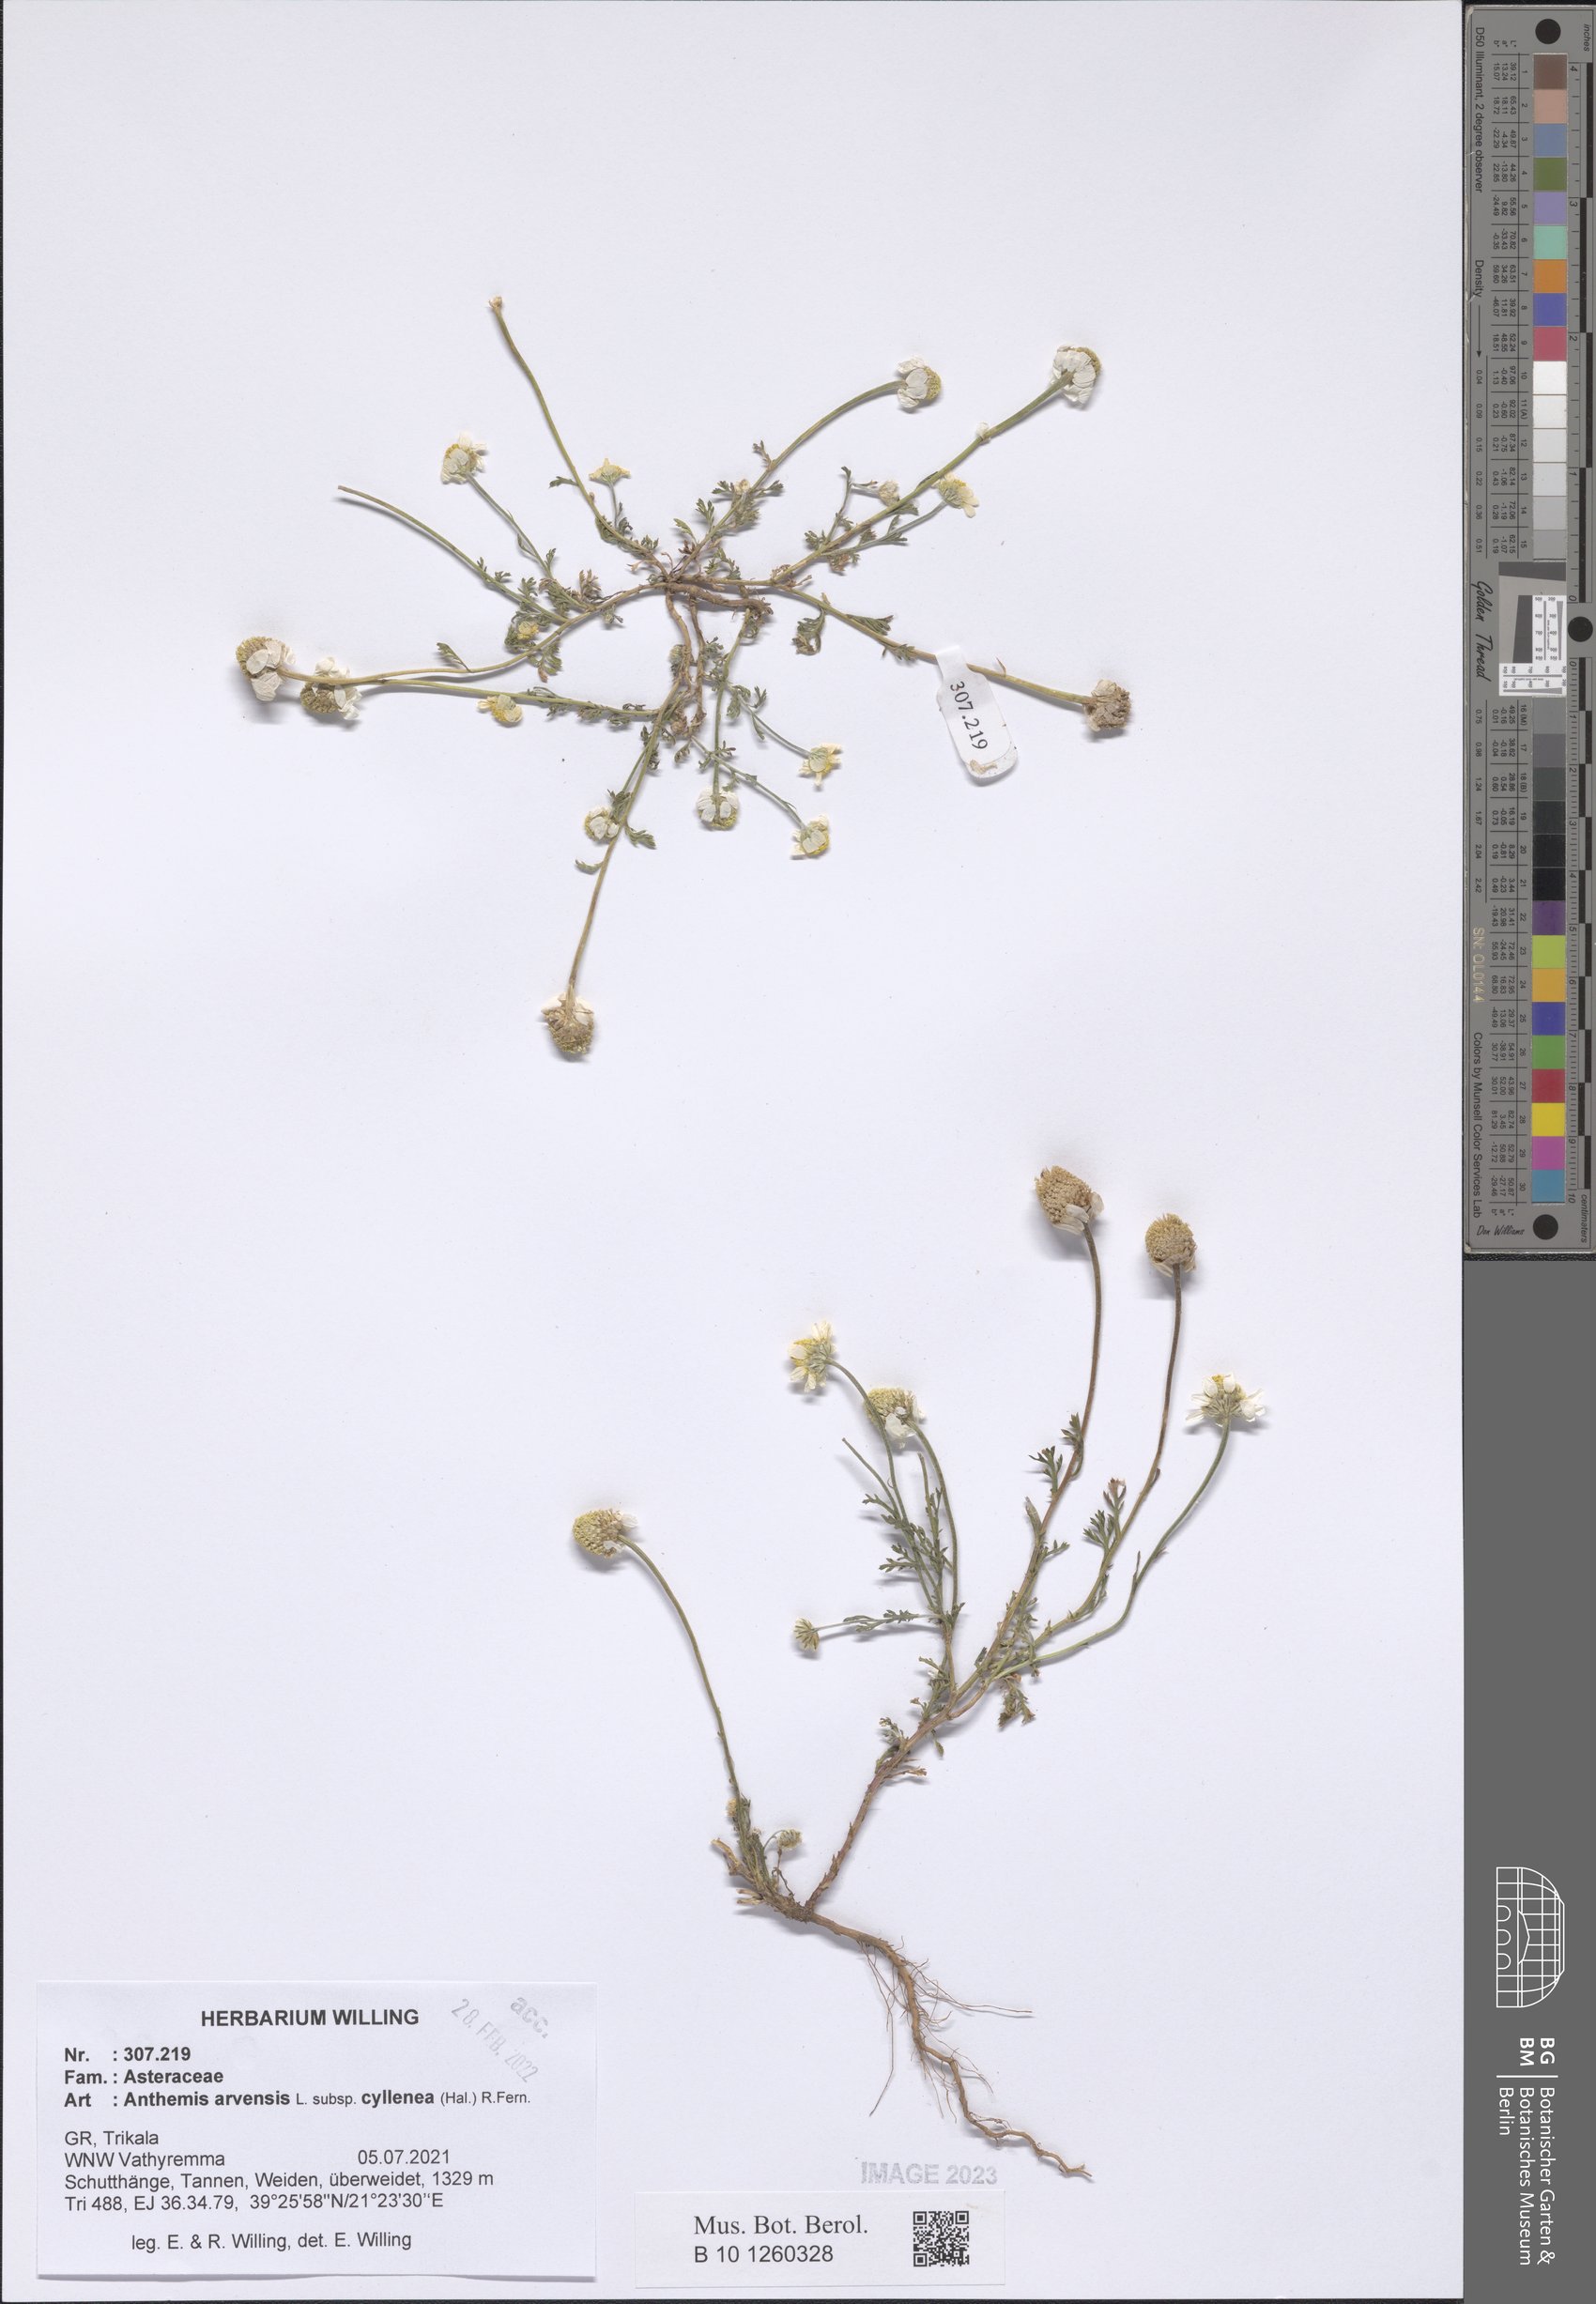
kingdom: Plantae
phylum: Tracheophyta
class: Magnoliopsida
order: Asterales
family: Asteraceae
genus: Anthemis
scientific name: Anthemis arvensis
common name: Corn chamomile
